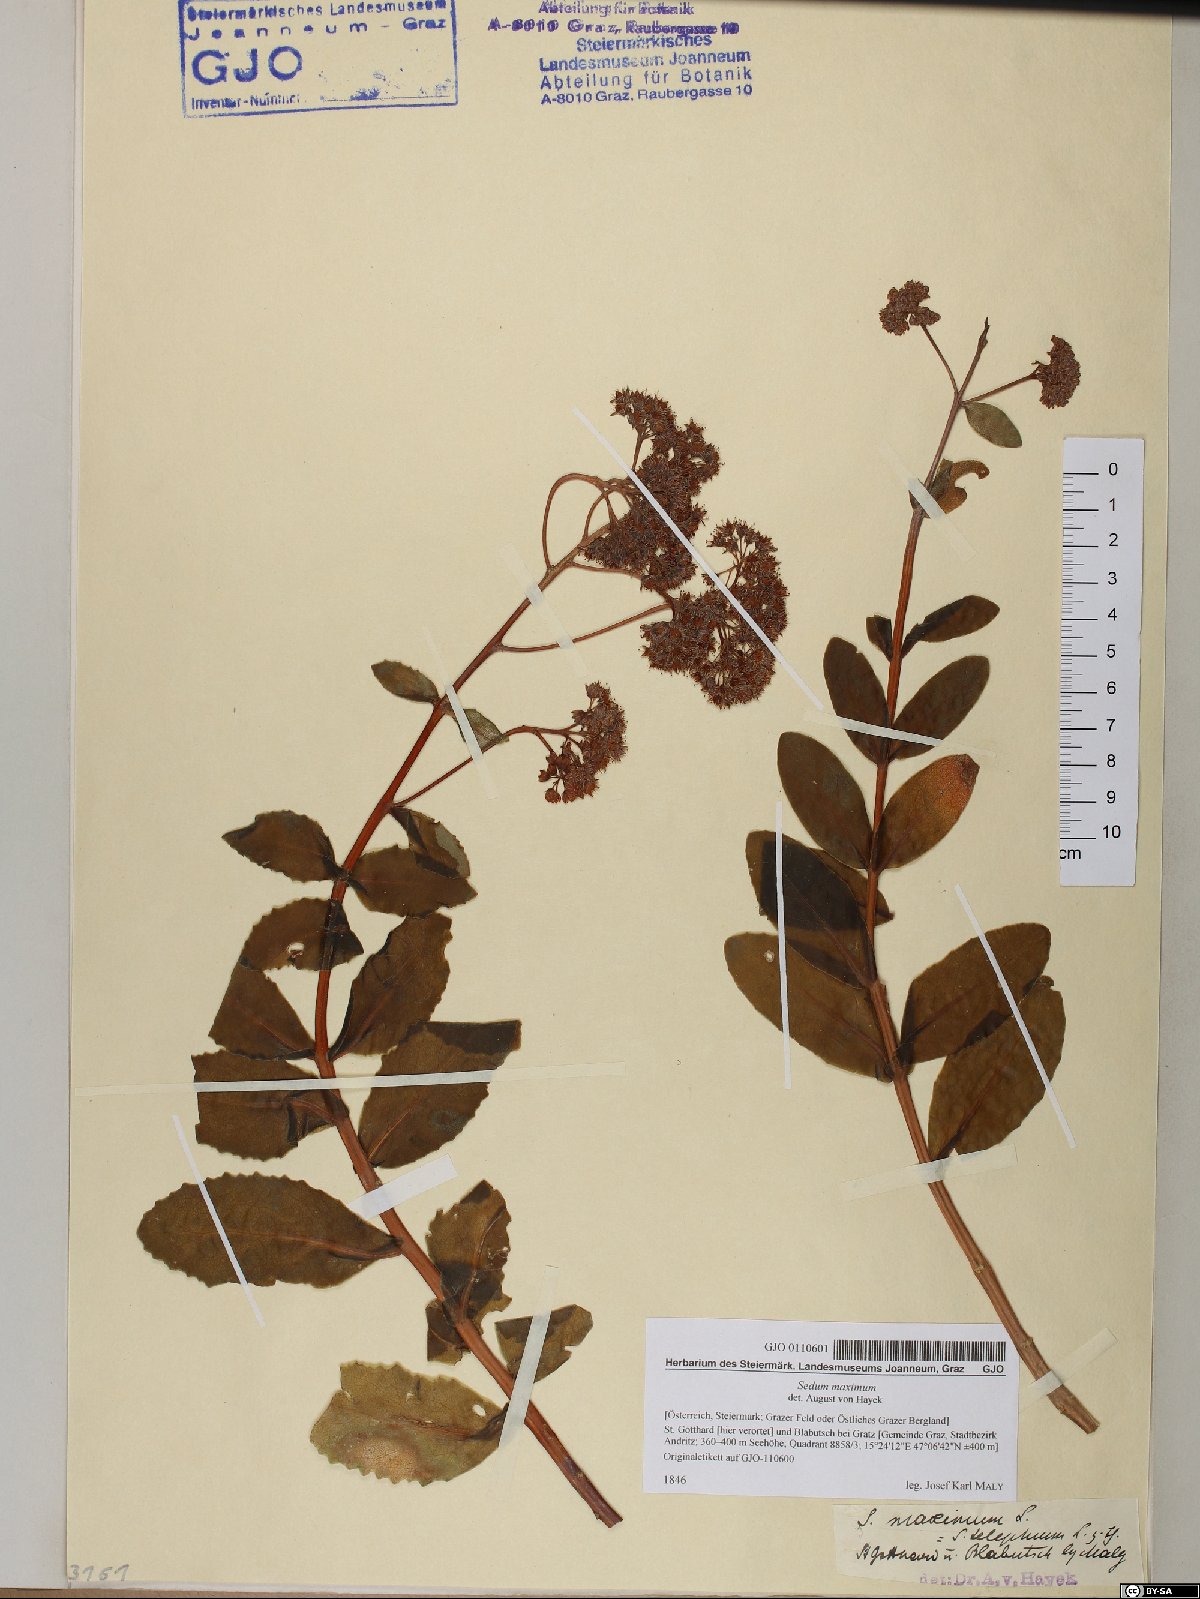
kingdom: Plantae
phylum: Tracheophyta
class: Magnoliopsida
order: Saxifragales
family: Crassulaceae
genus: Hylotelephium
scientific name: Hylotelephium maximum
